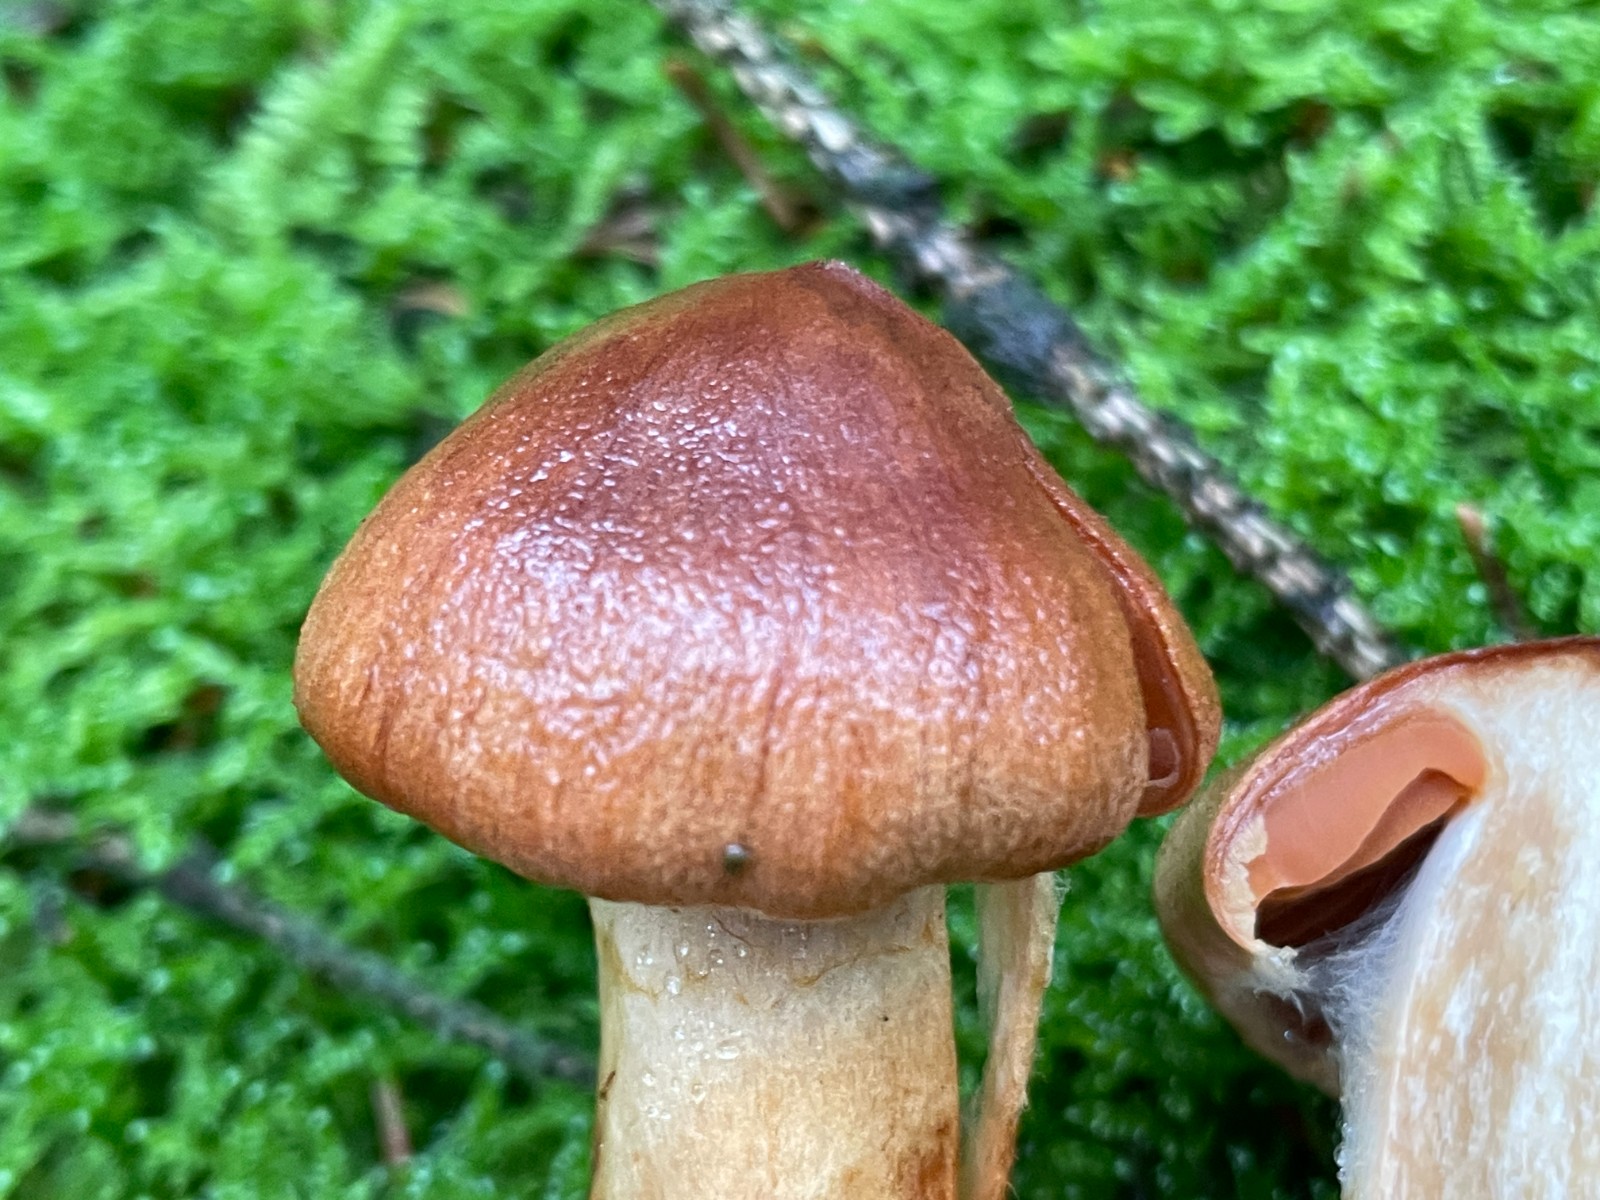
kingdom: Fungi
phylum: Basidiomycota
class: Agaricomycetes
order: Agaricales
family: Cortinariaceae
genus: Cortinarius
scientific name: Cortinarius rubellus
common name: puklet gift-slørhat
